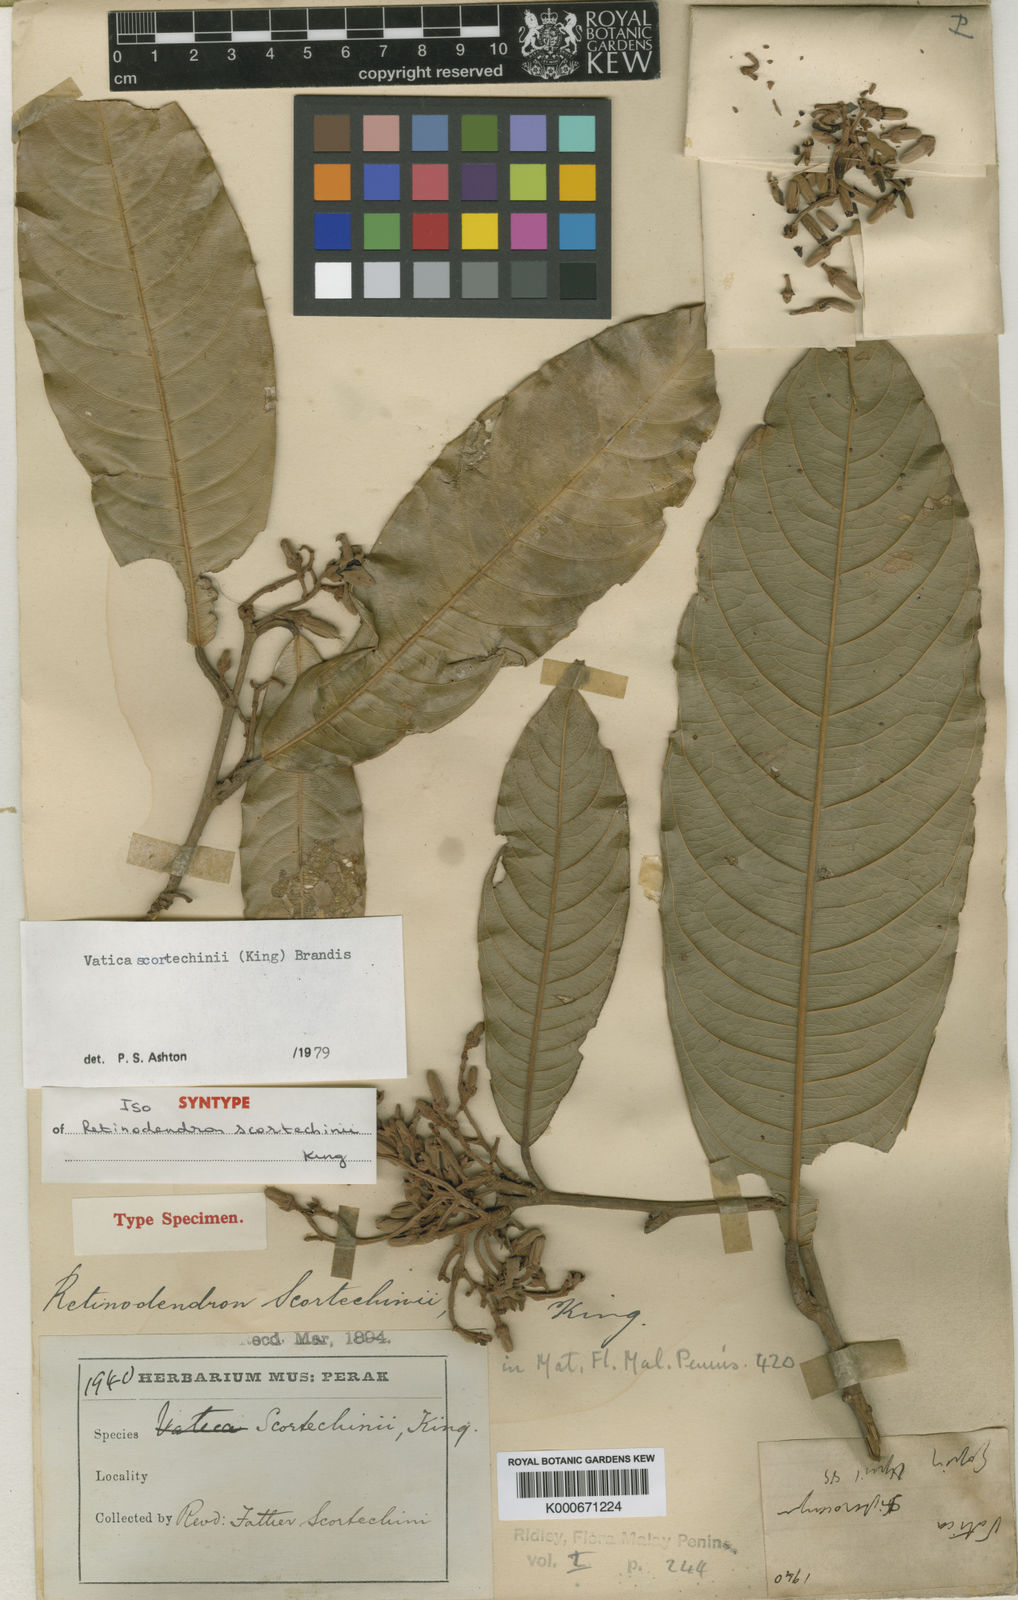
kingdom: Plantae
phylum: Tracheophyta
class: Magnoliopsida
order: Malvales
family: Dipterocarpaceae
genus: Vatica
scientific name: Vatica scortechinii
